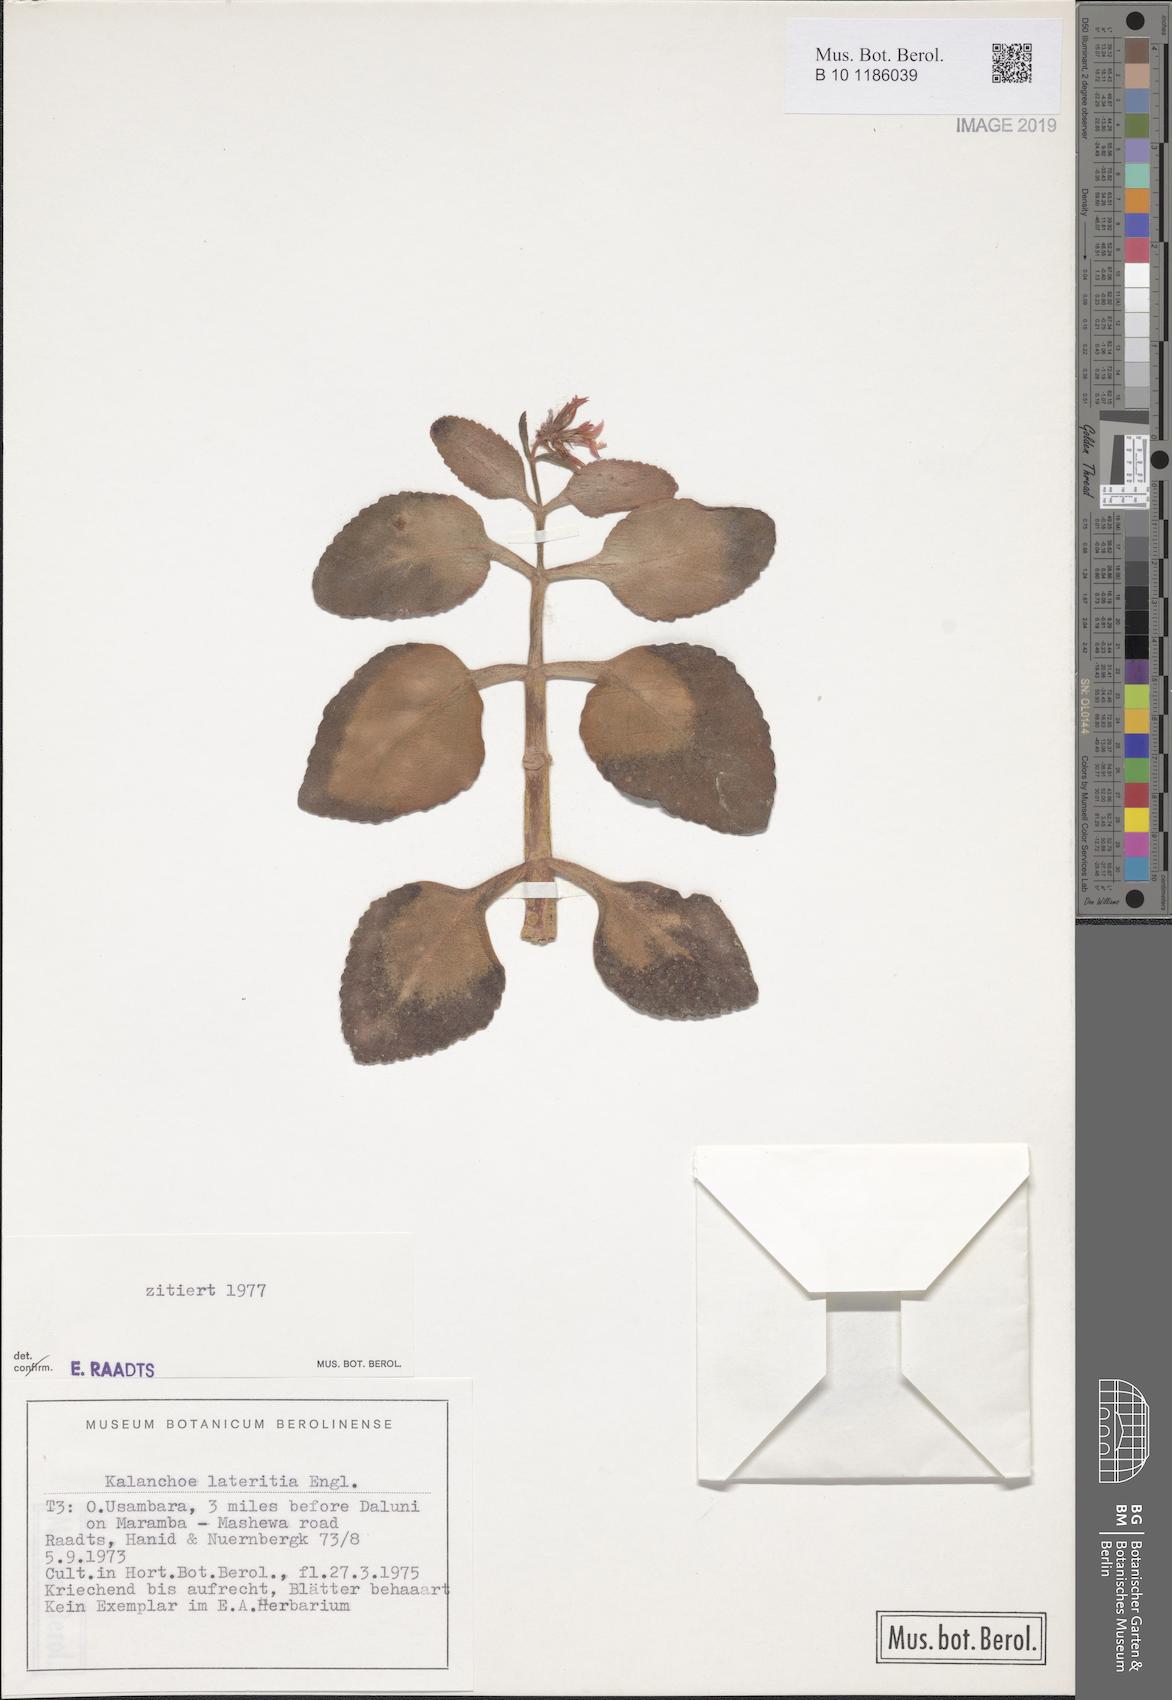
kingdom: Plantae
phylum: Tracheophyta
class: Magnoliopsida
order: Saxifragales
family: Crassulaceae
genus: Kalanchoe
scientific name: Kalanchoe lateritia
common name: Kalanchoe
